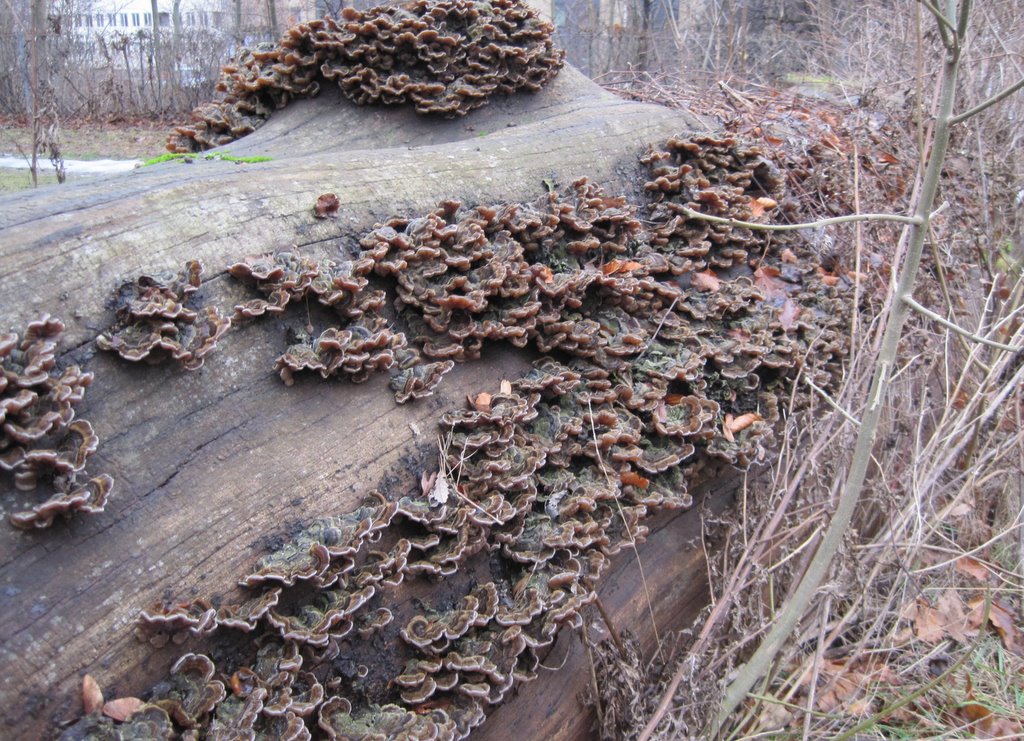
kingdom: Fungi
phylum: Basidiomycota
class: Agaricomycetes
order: Auriculariales
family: Auriculariaceae
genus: Auricularia
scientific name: Auricularia mesenterica
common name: håret judasøre
